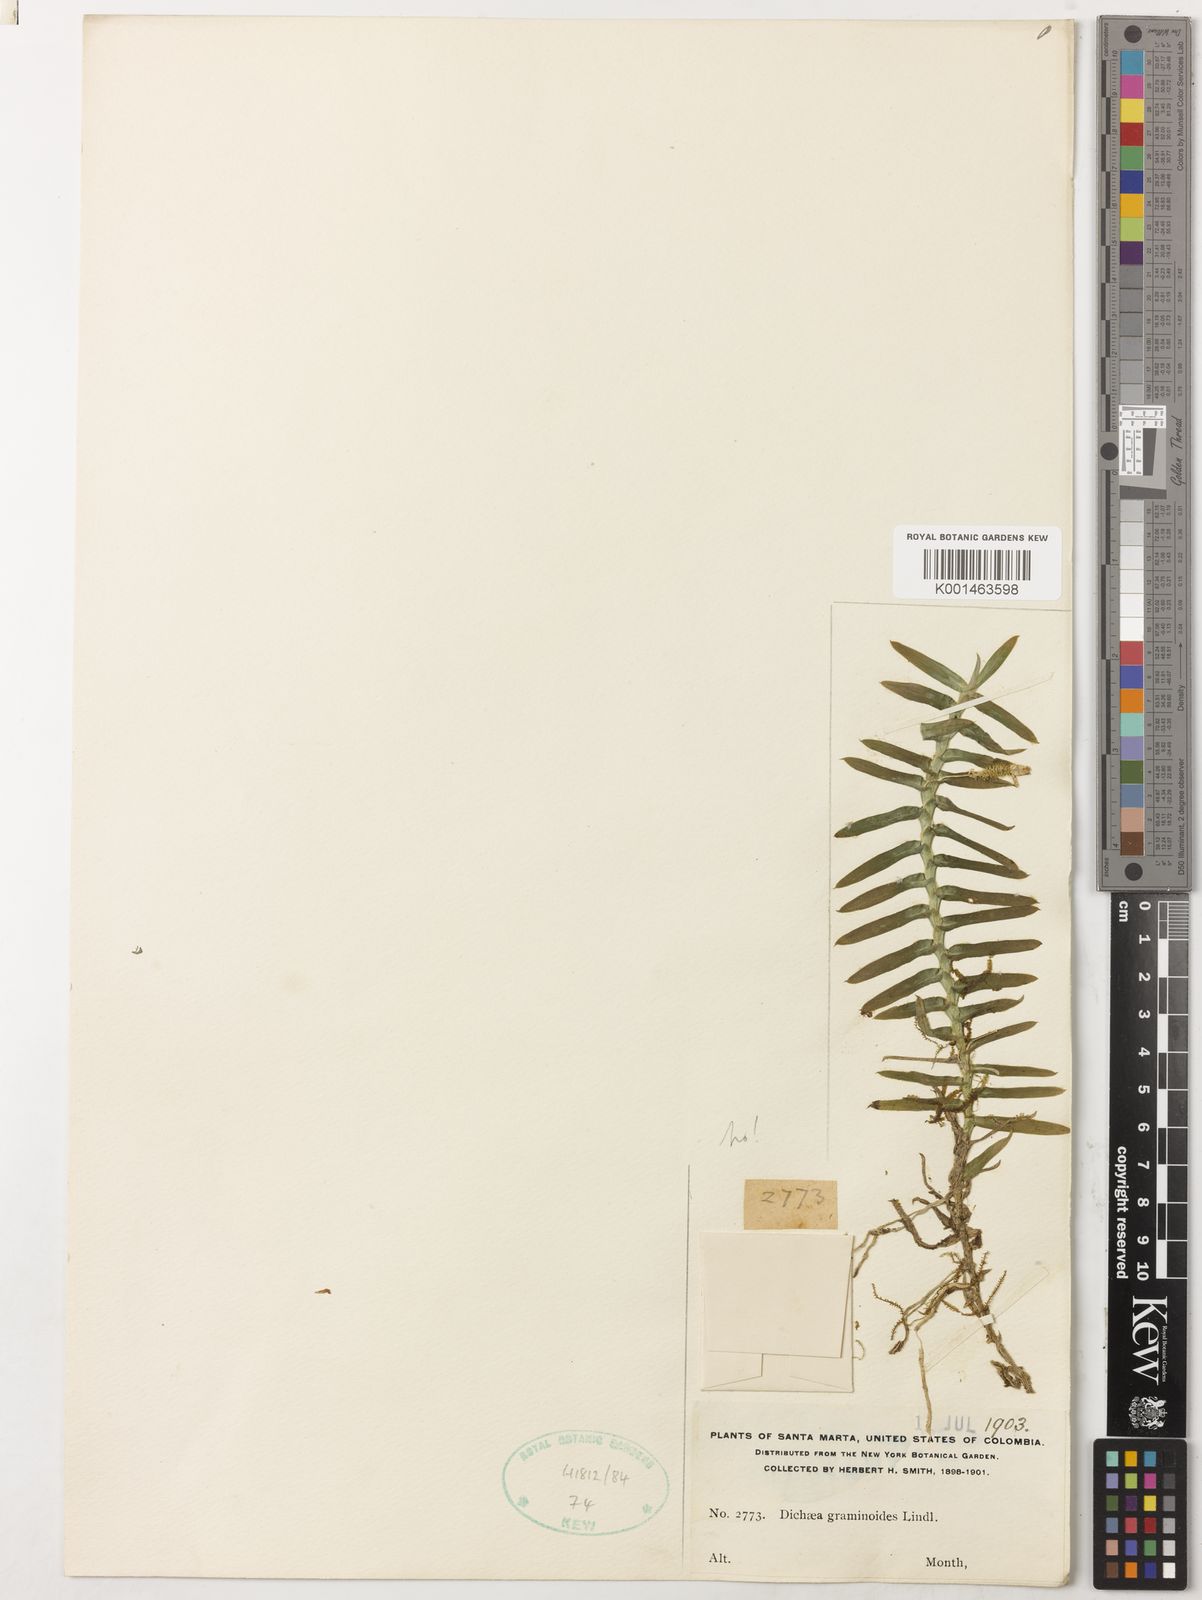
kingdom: Plantae
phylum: Tracheophyta
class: Liliopsida
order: Asparagales
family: Orchidaceae
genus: Dichaea
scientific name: Dichaea graminoides
